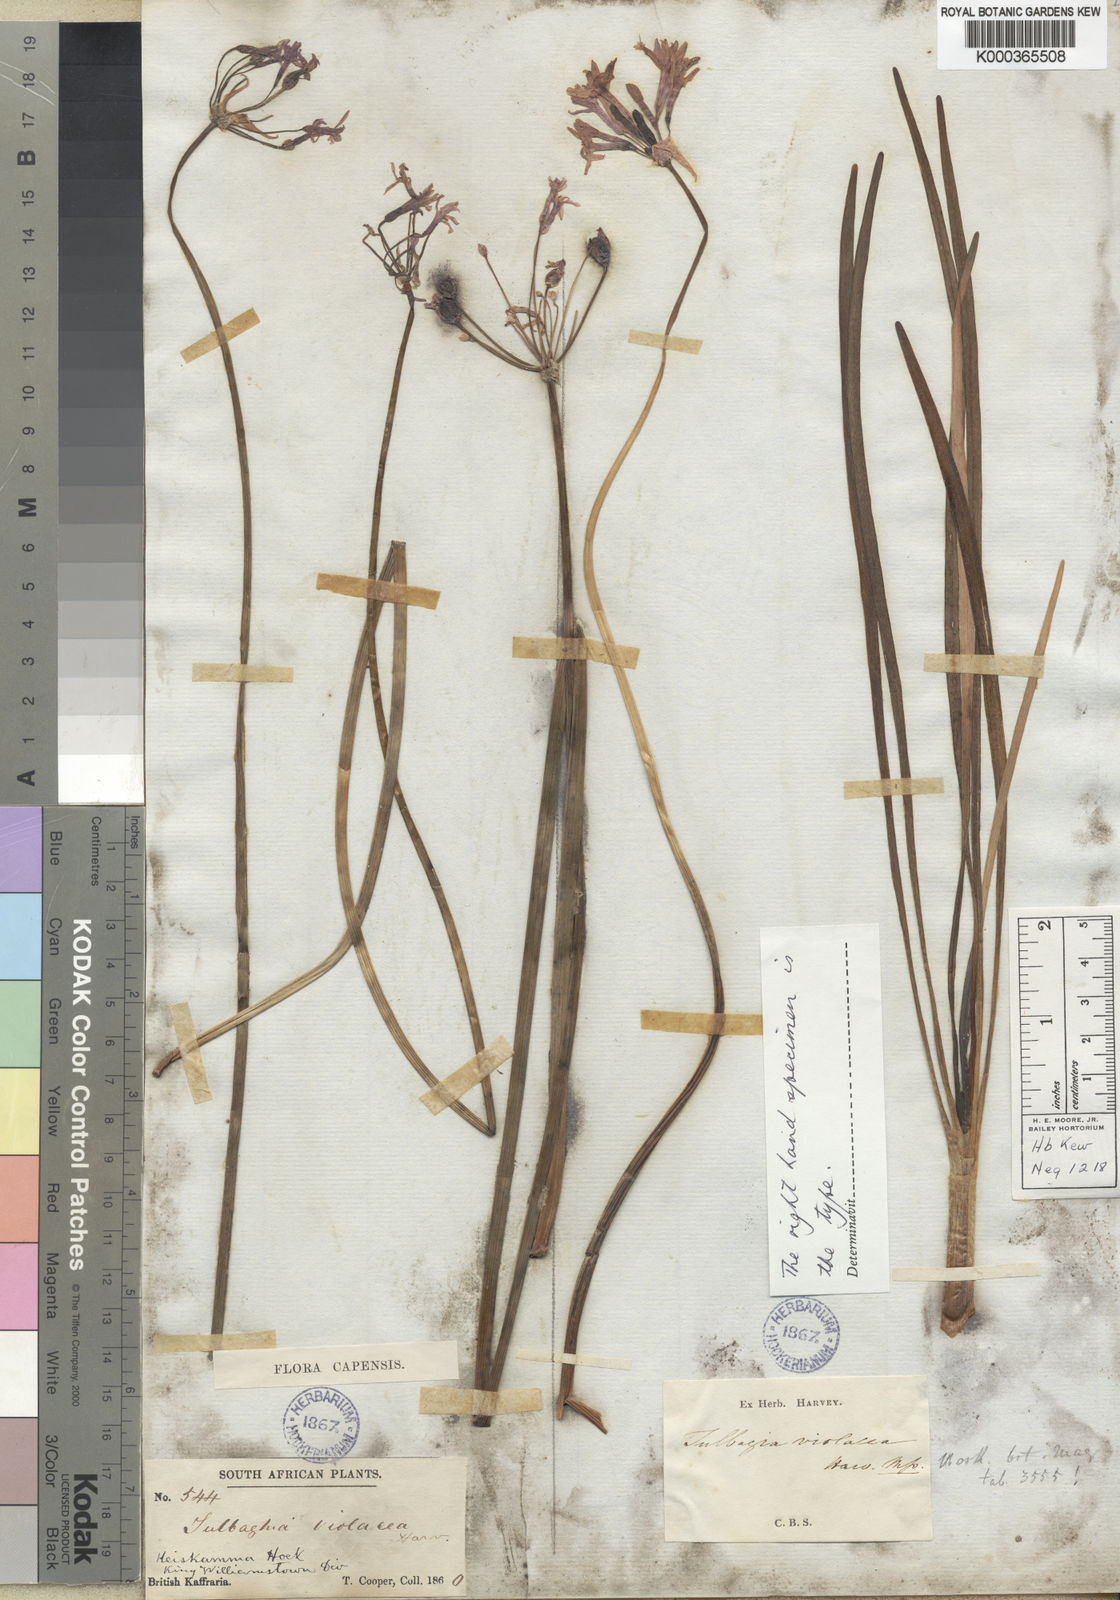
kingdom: Plantae
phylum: Tracheophyta
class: Liliopsida
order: Asparagales
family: Amaryllidaceae
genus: Tulbaghia
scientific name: Tulbaghia violacea
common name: Society garlic
